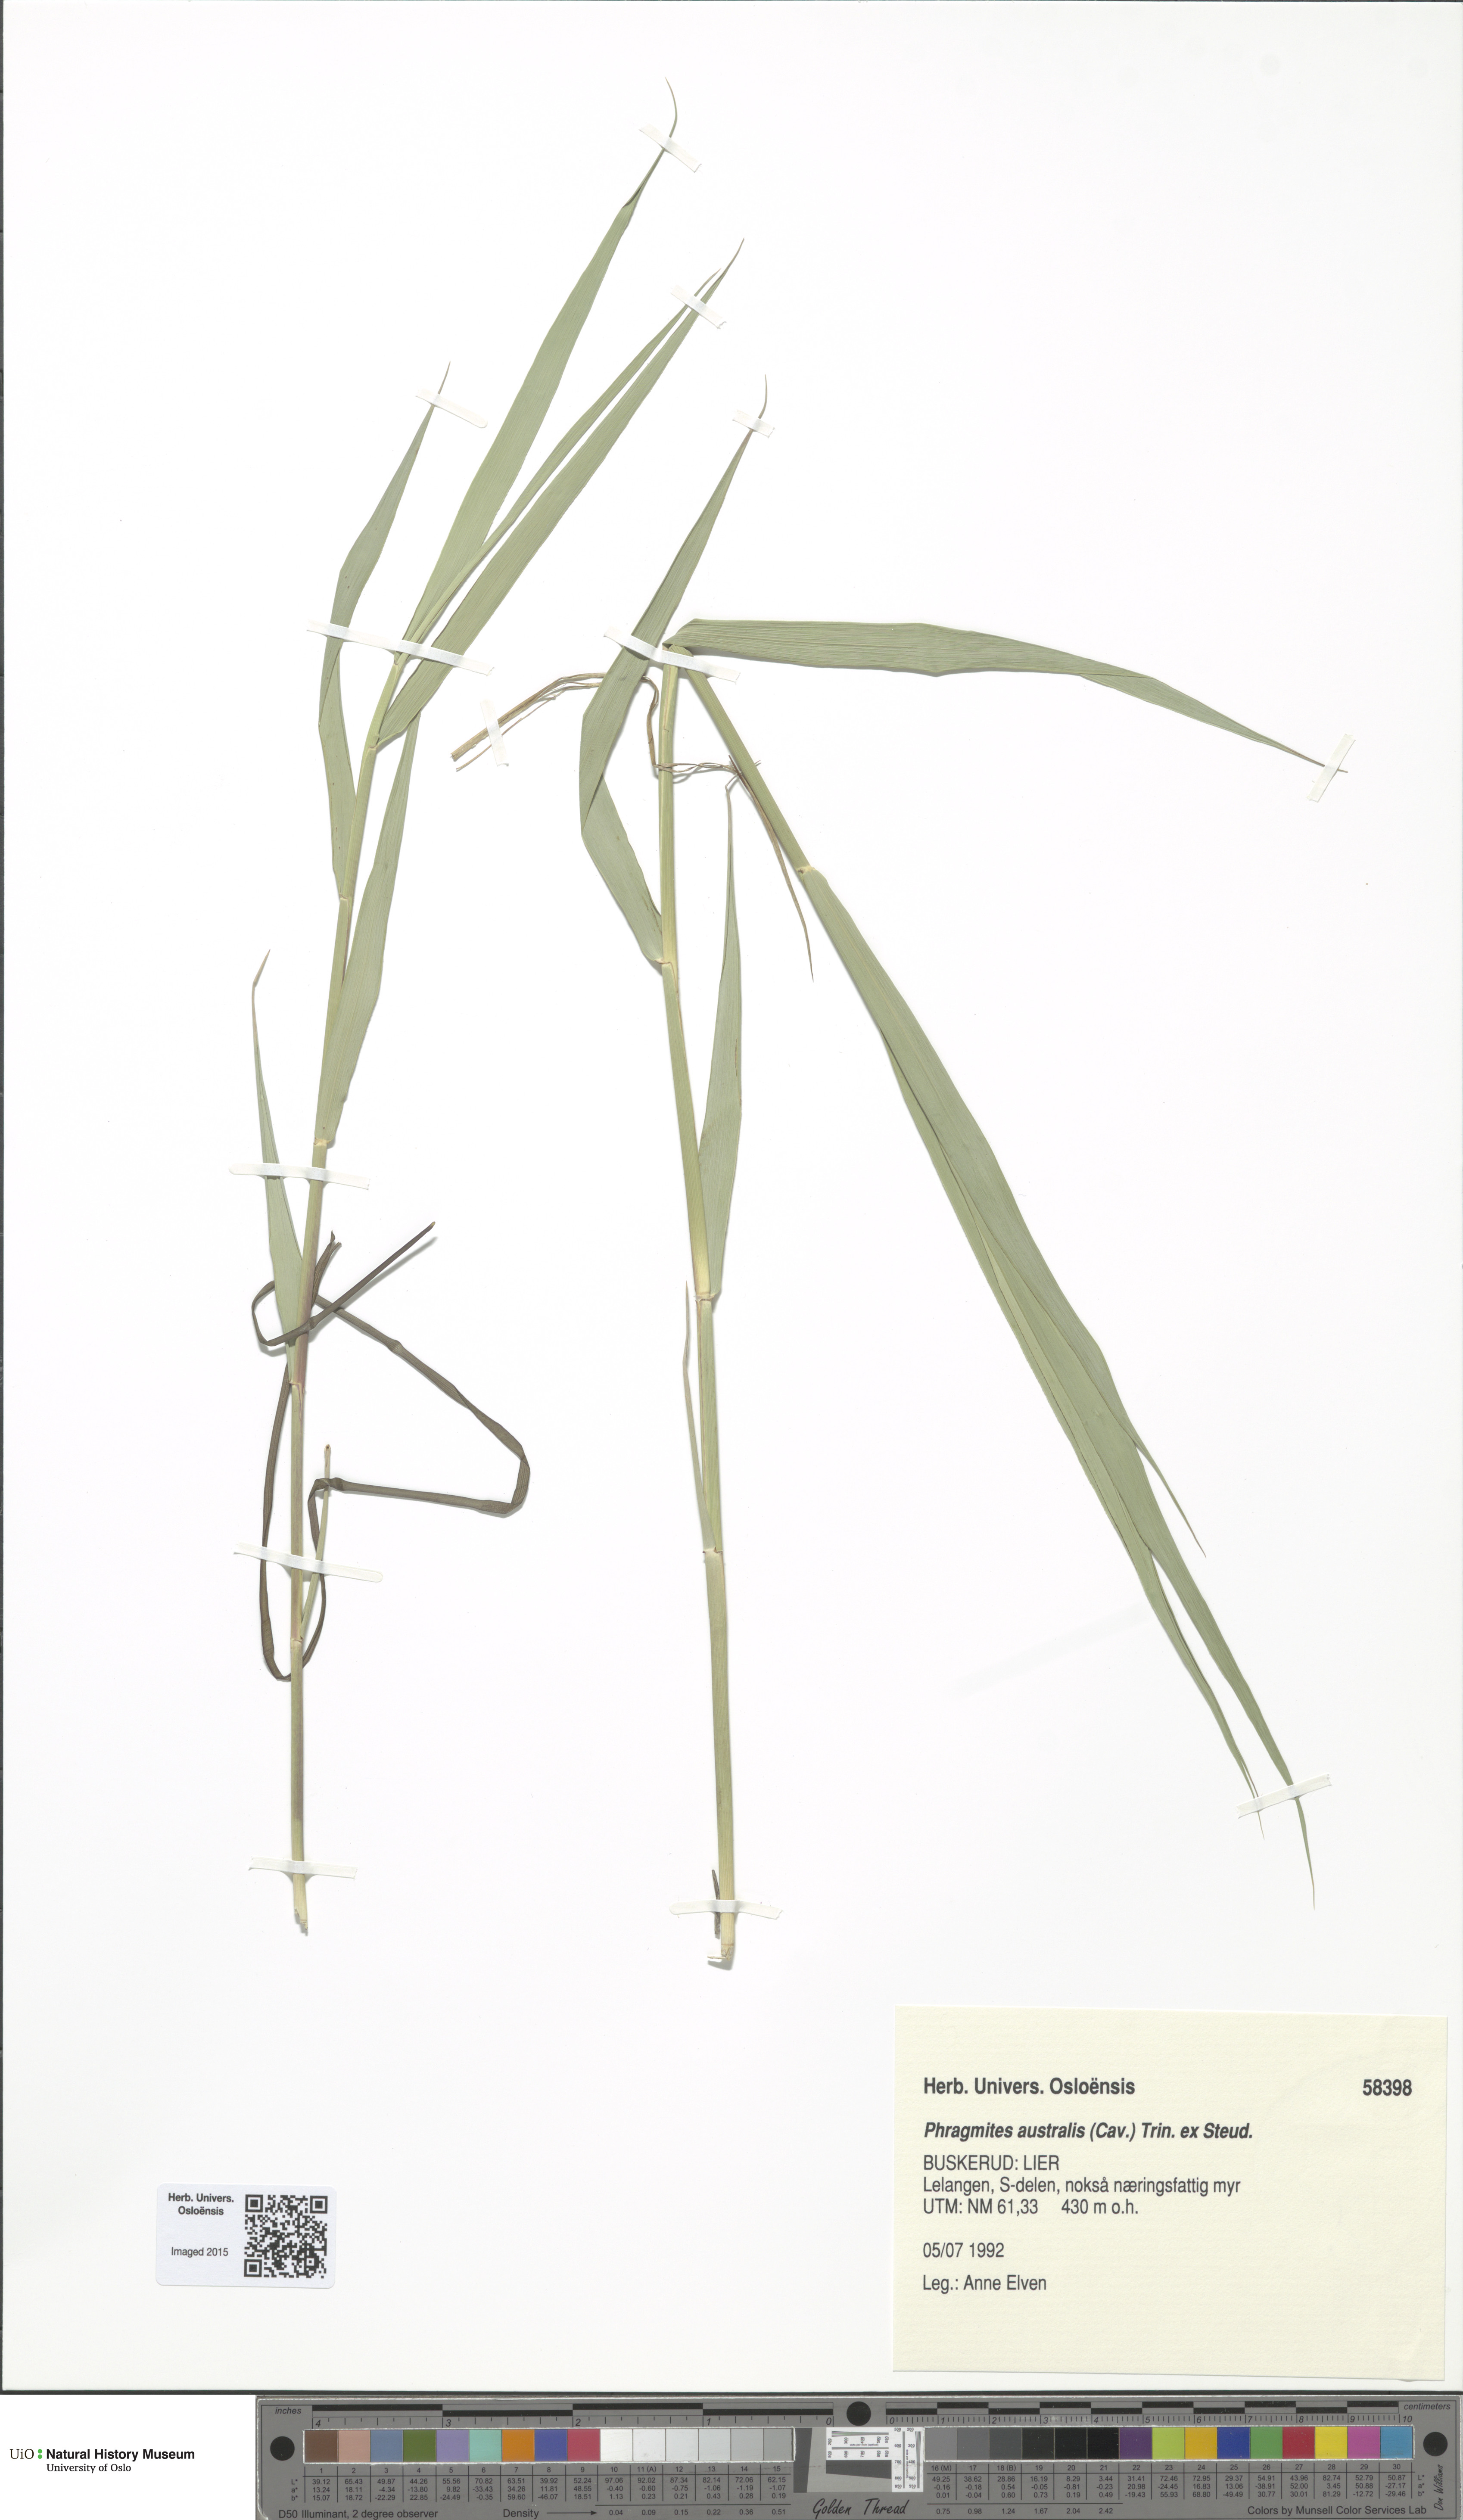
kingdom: Plantae
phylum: Tracheophyta
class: Liliopsida
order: Poales
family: Poaceae
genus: Phragmites
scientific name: Phragmites australis
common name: Common reed
